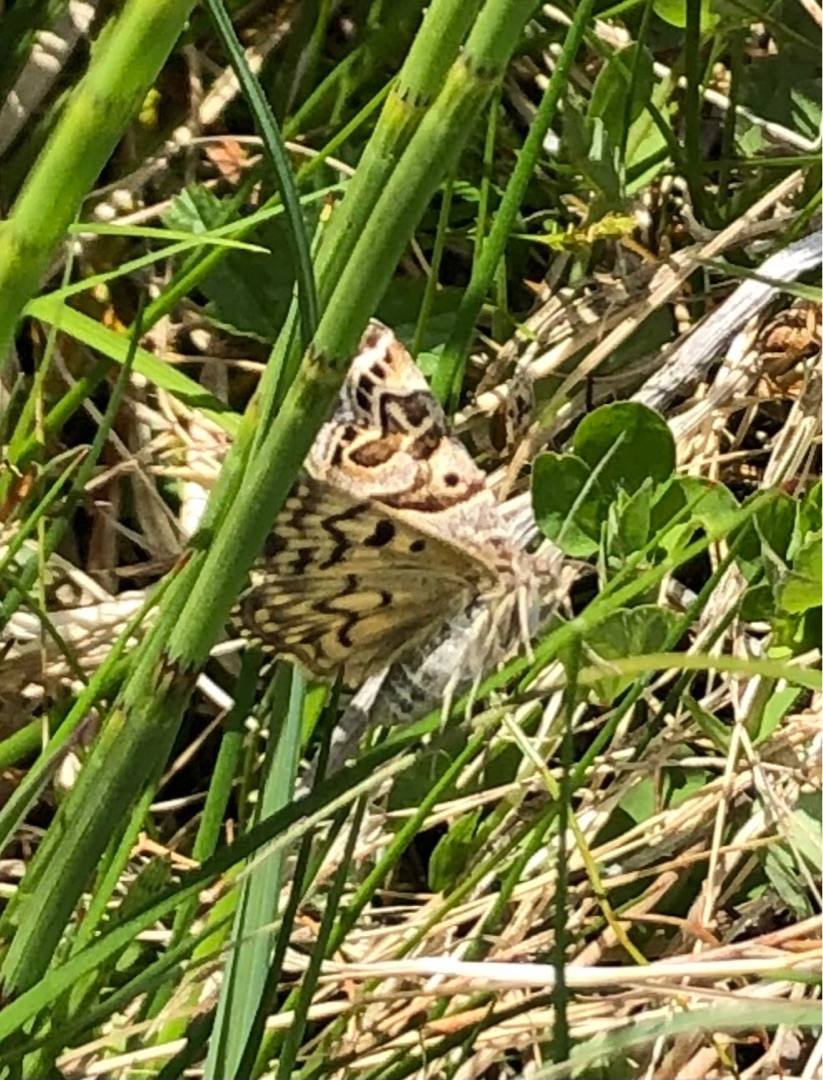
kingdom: Animalia
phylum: Arthropoda
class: Insecta
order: Lepidoptera
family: Erebidae
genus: Callistege
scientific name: Callistege mi
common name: Marmoreret kløverugle
